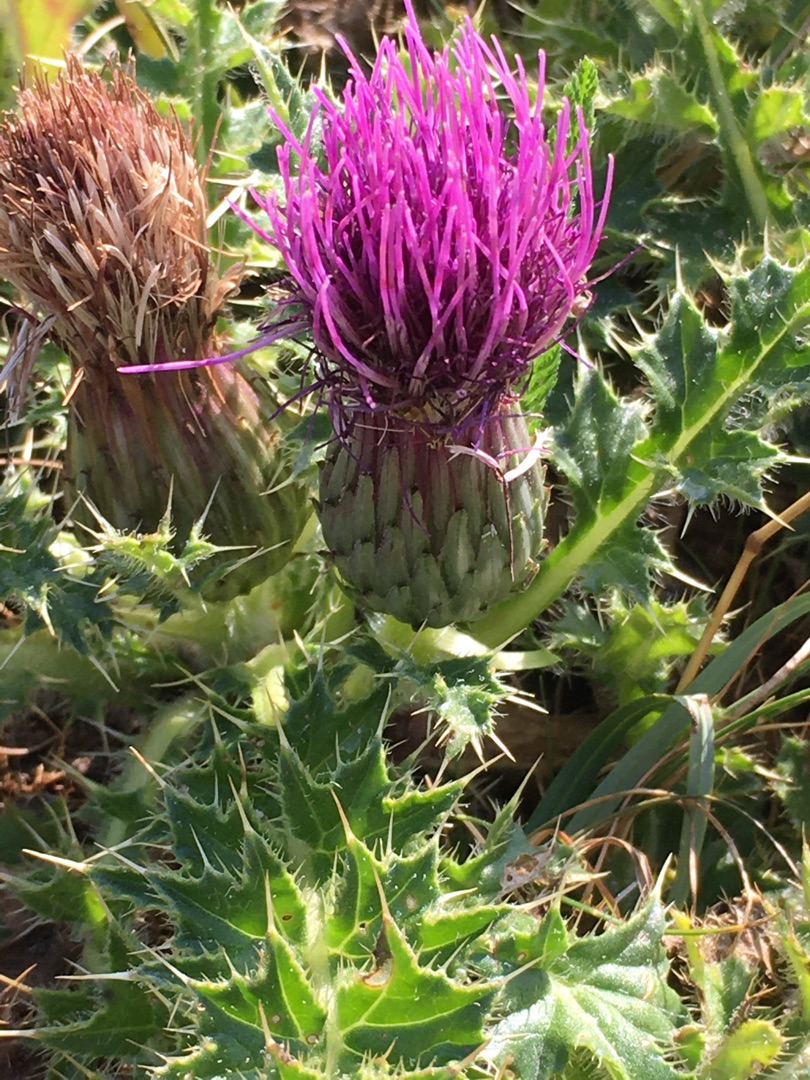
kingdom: Plantae
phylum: Tracheophyta
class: Magnoliopsida
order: Asterales
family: Asteraceae
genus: Cirsium
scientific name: Cirsium acaule
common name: Lav tidsel
